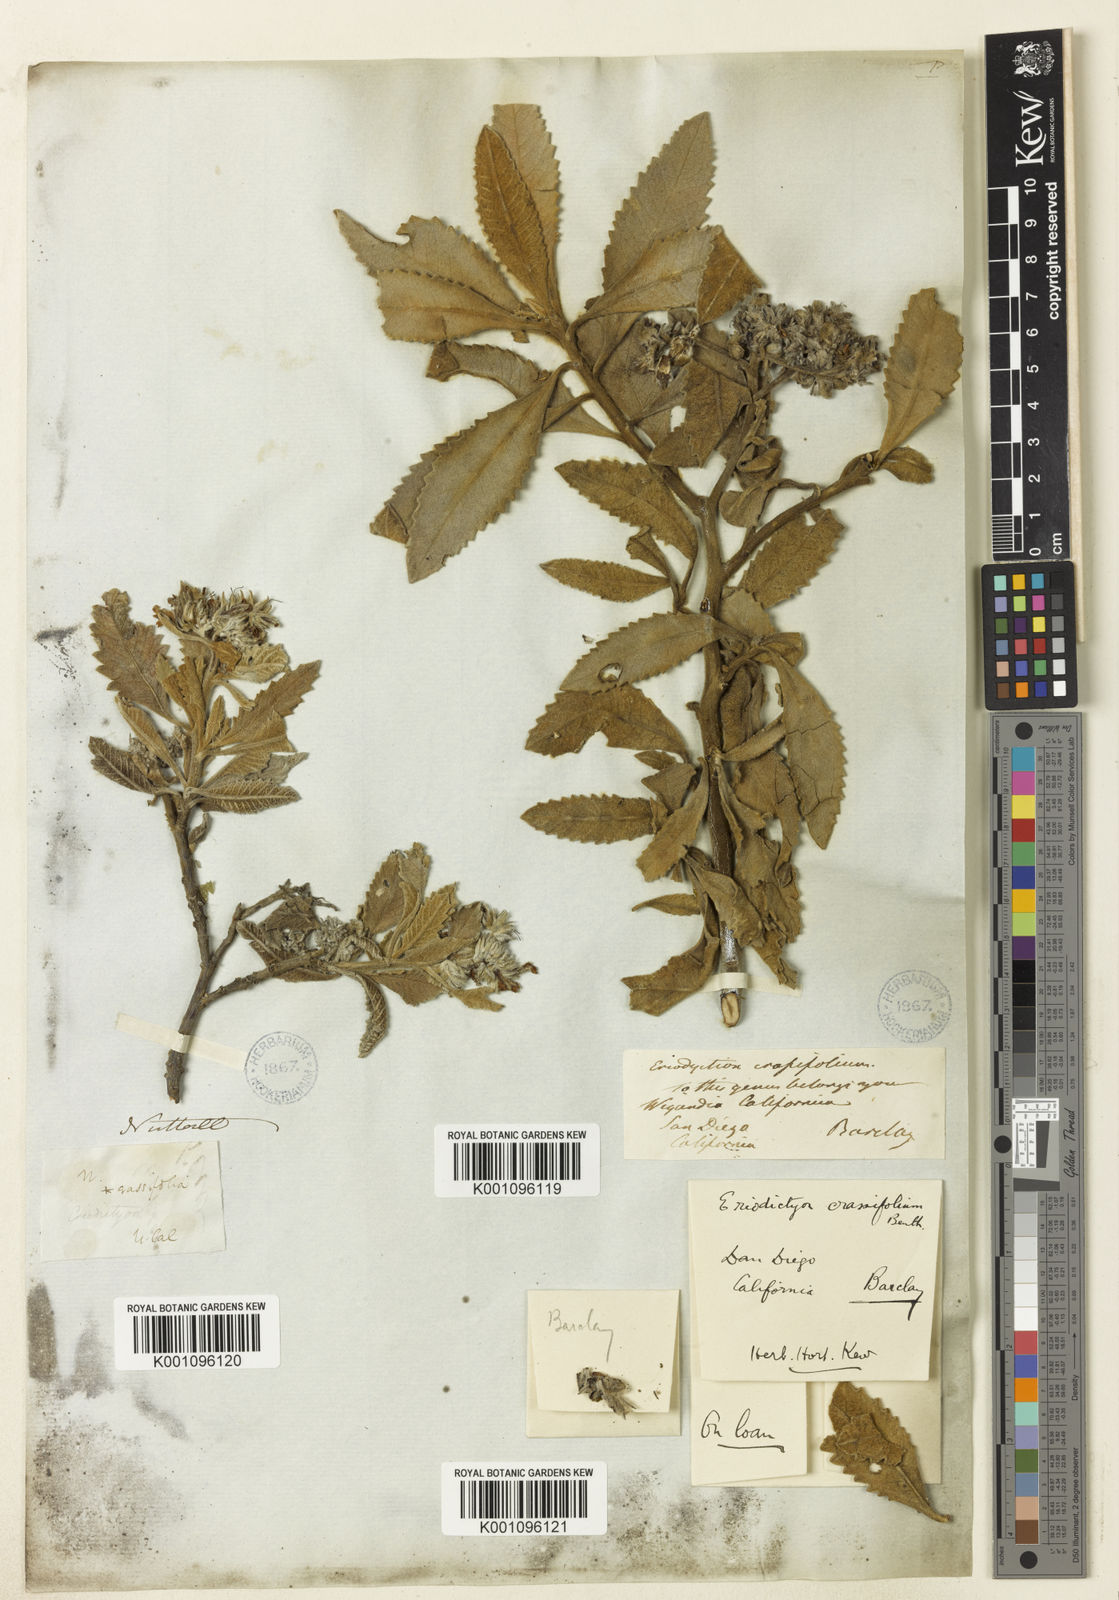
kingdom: Plantae
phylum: Tracheophyta
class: Magnoliopsida
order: Boraginales
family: Namaceae
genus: Eriodictyon
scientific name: Eriodictyon crassifolium
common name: Thick-leaf yerba-santa
